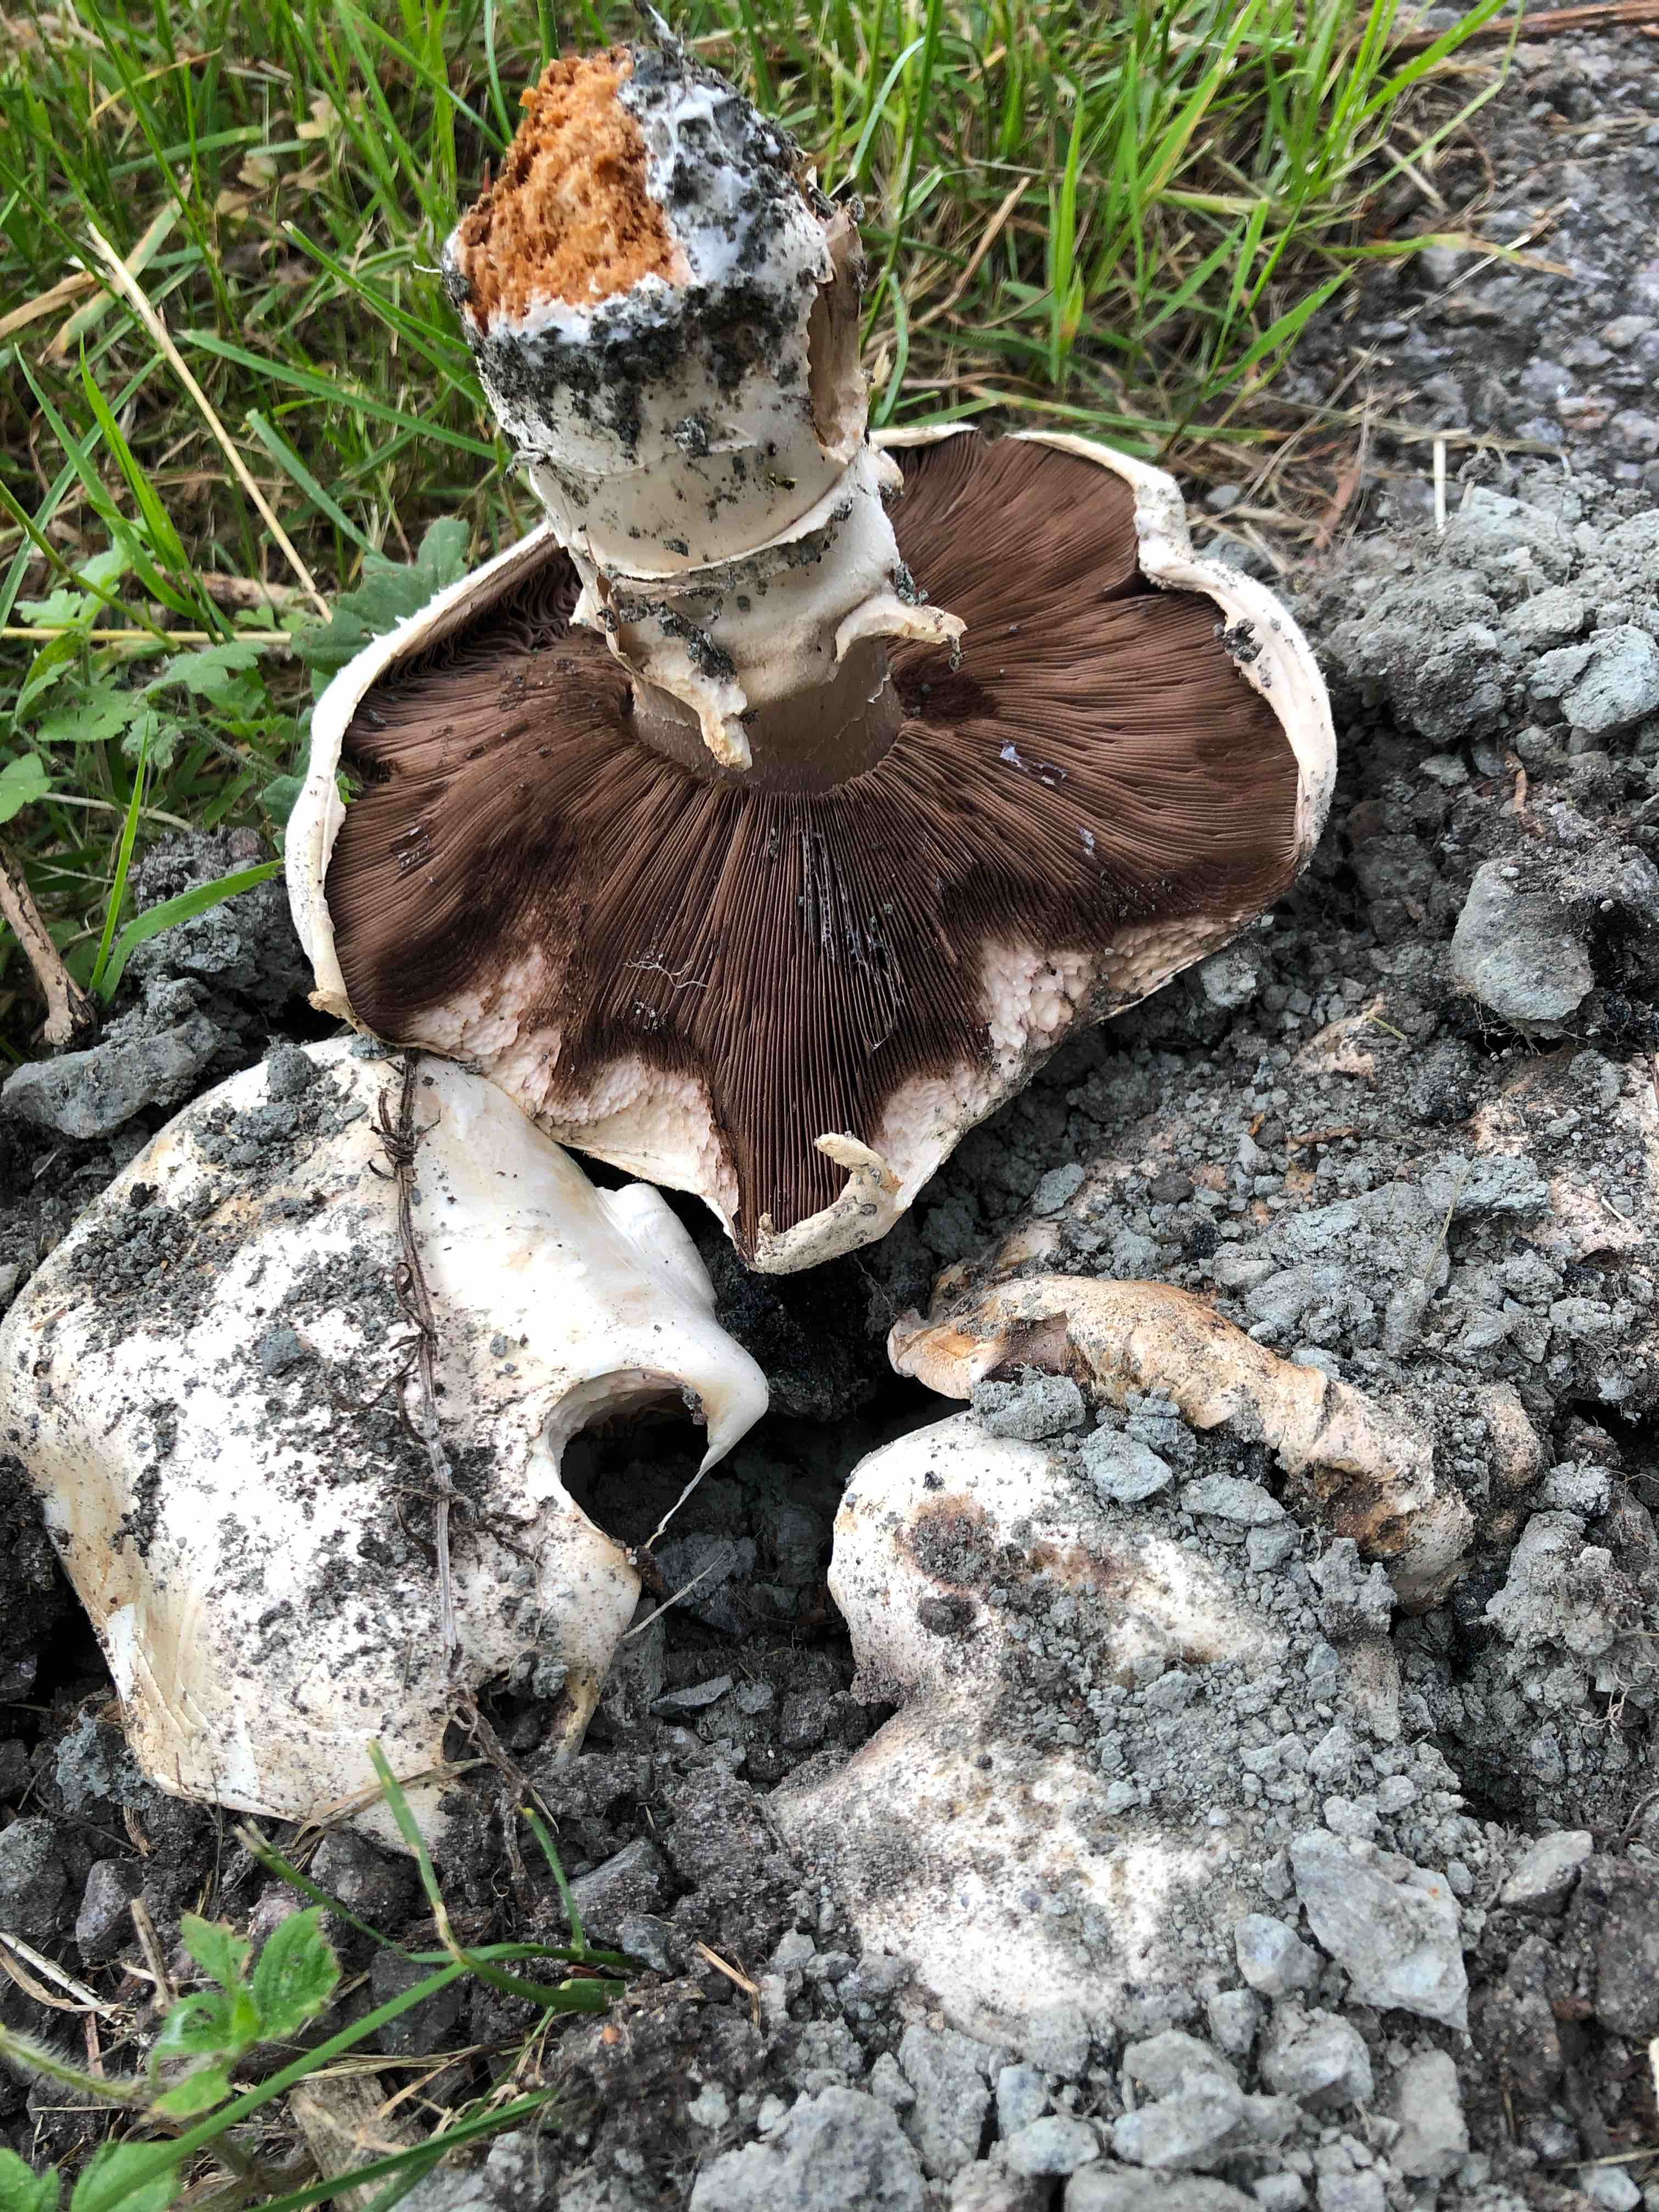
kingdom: Fungi
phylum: Basidiomycota
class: Agaricomycetes
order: Agaricales
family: Agaricaceae
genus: Agaricus
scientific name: Agaricus bitorquis
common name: vej-champignon
